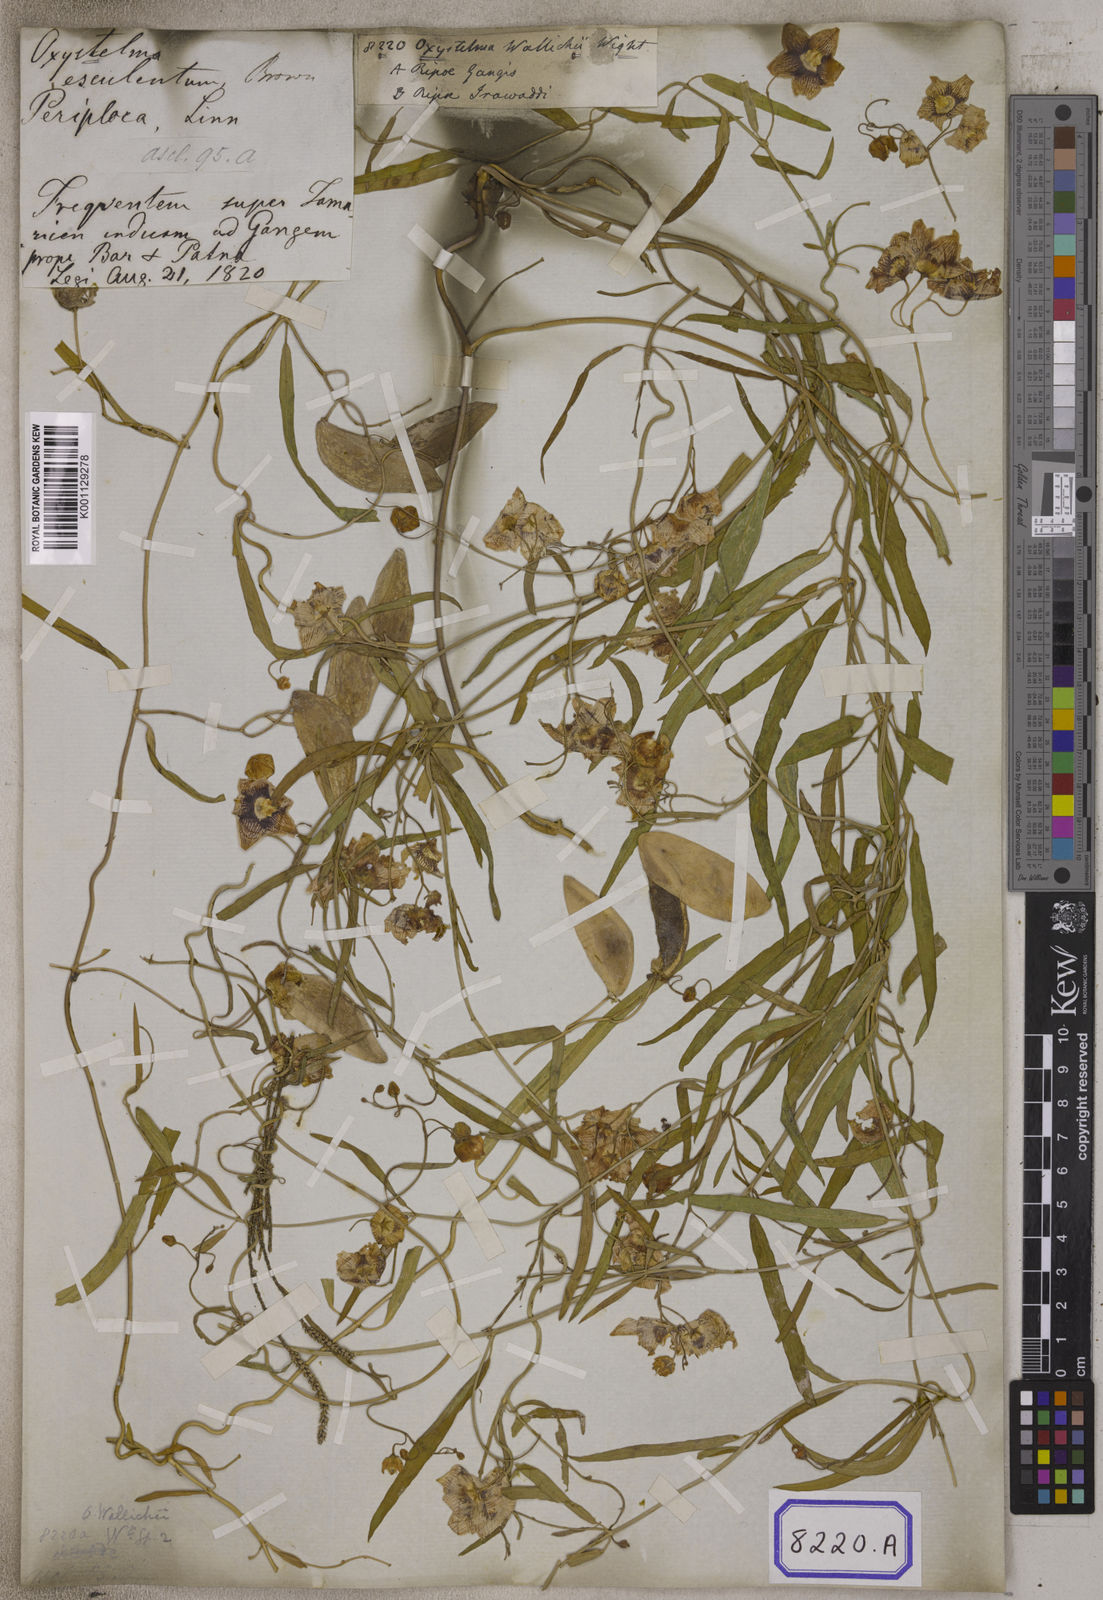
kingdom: Plantae
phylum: Tracheophyta
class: Magnoliopsida
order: Gentianales
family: Apocynaceae
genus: Oxystelma
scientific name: Oxystelma wallichii
